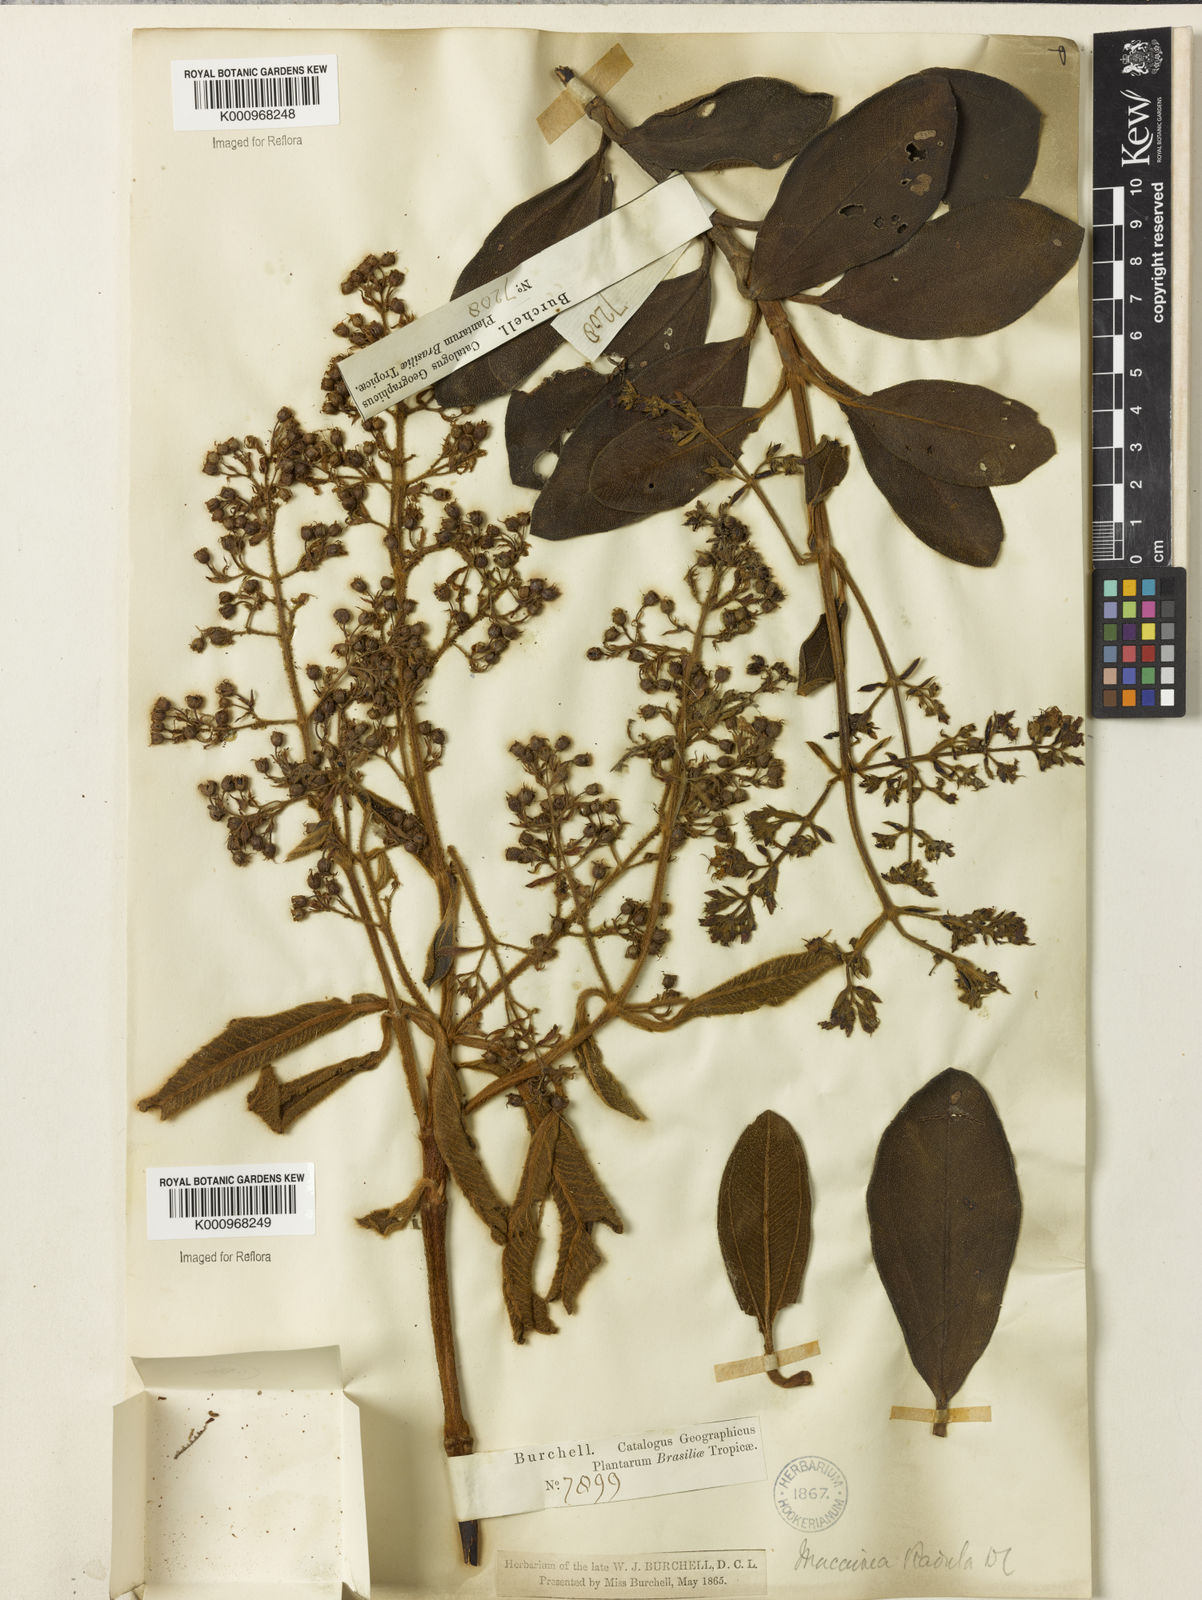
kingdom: Plantae
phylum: Tracheophyta
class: Magnoliopsida
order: Myrtales
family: Melastomataceae
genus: Macairea
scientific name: Macairea radula
